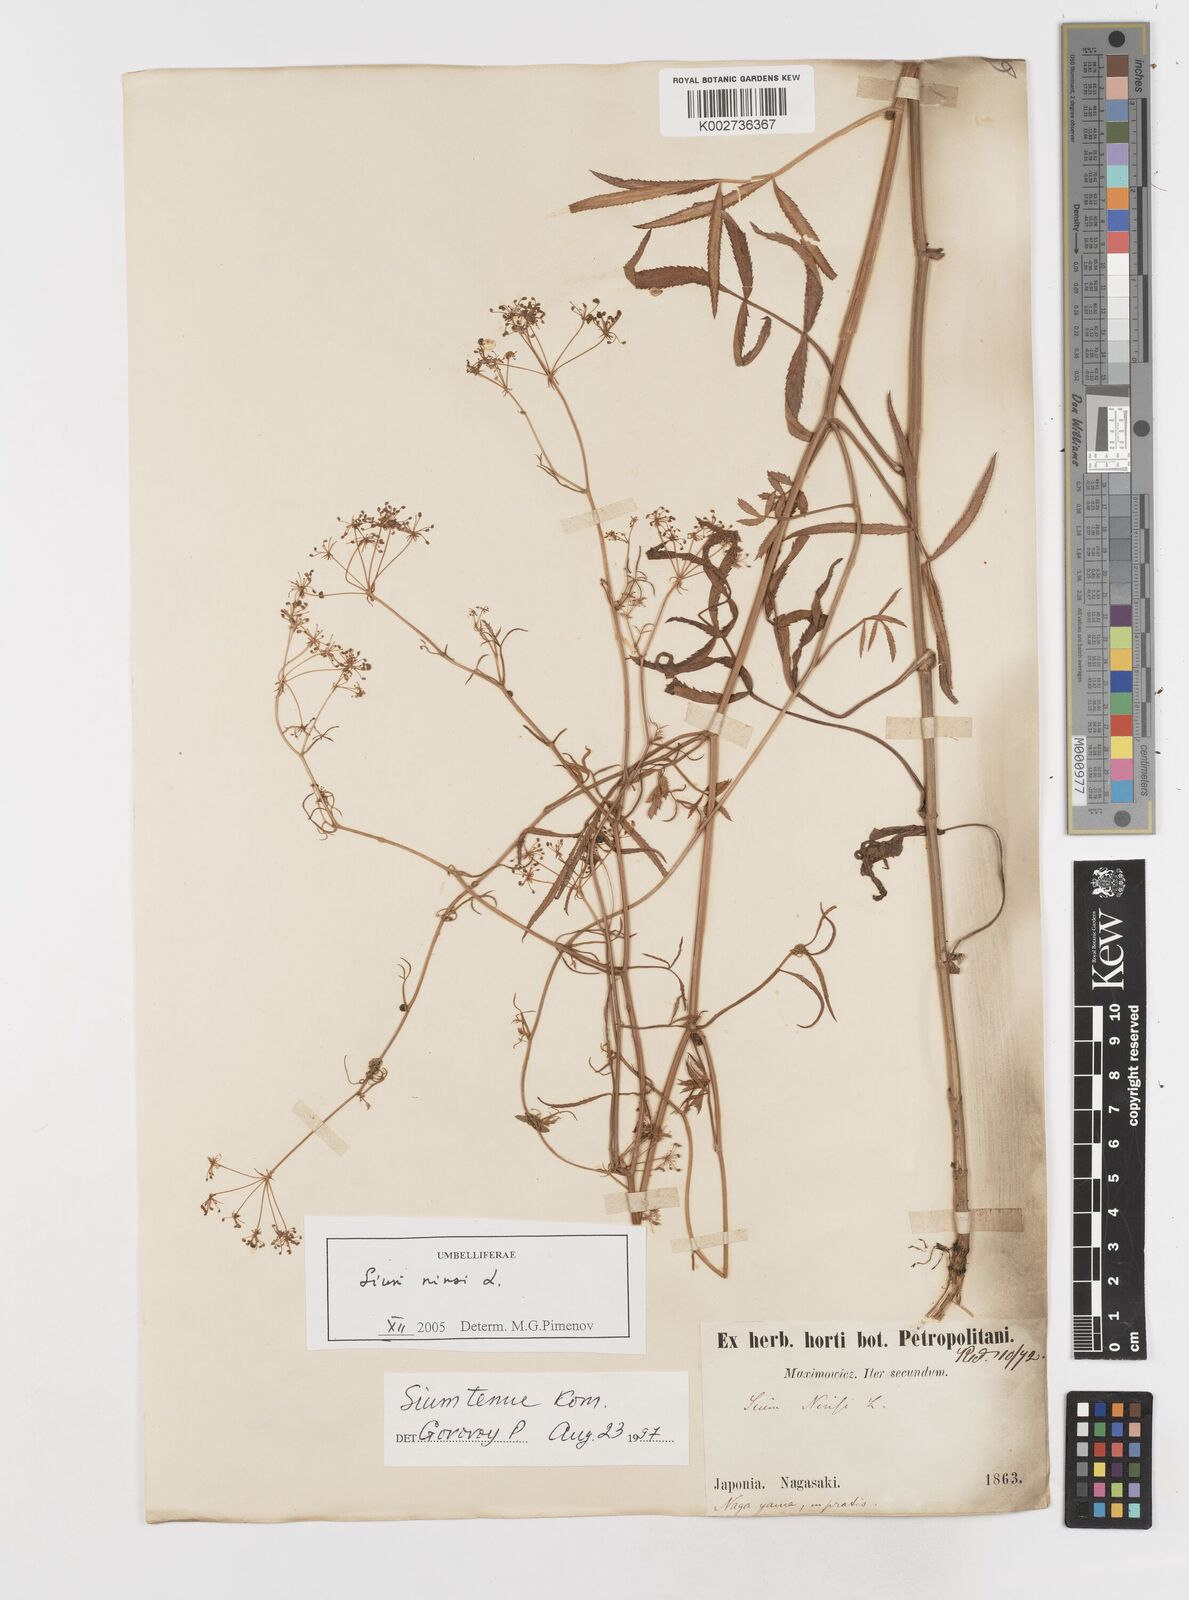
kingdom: Plantae
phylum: Tracheophyta
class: Magnoliopsida
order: Apiales
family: Apiaceae
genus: Sium
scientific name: Sium ninsi
